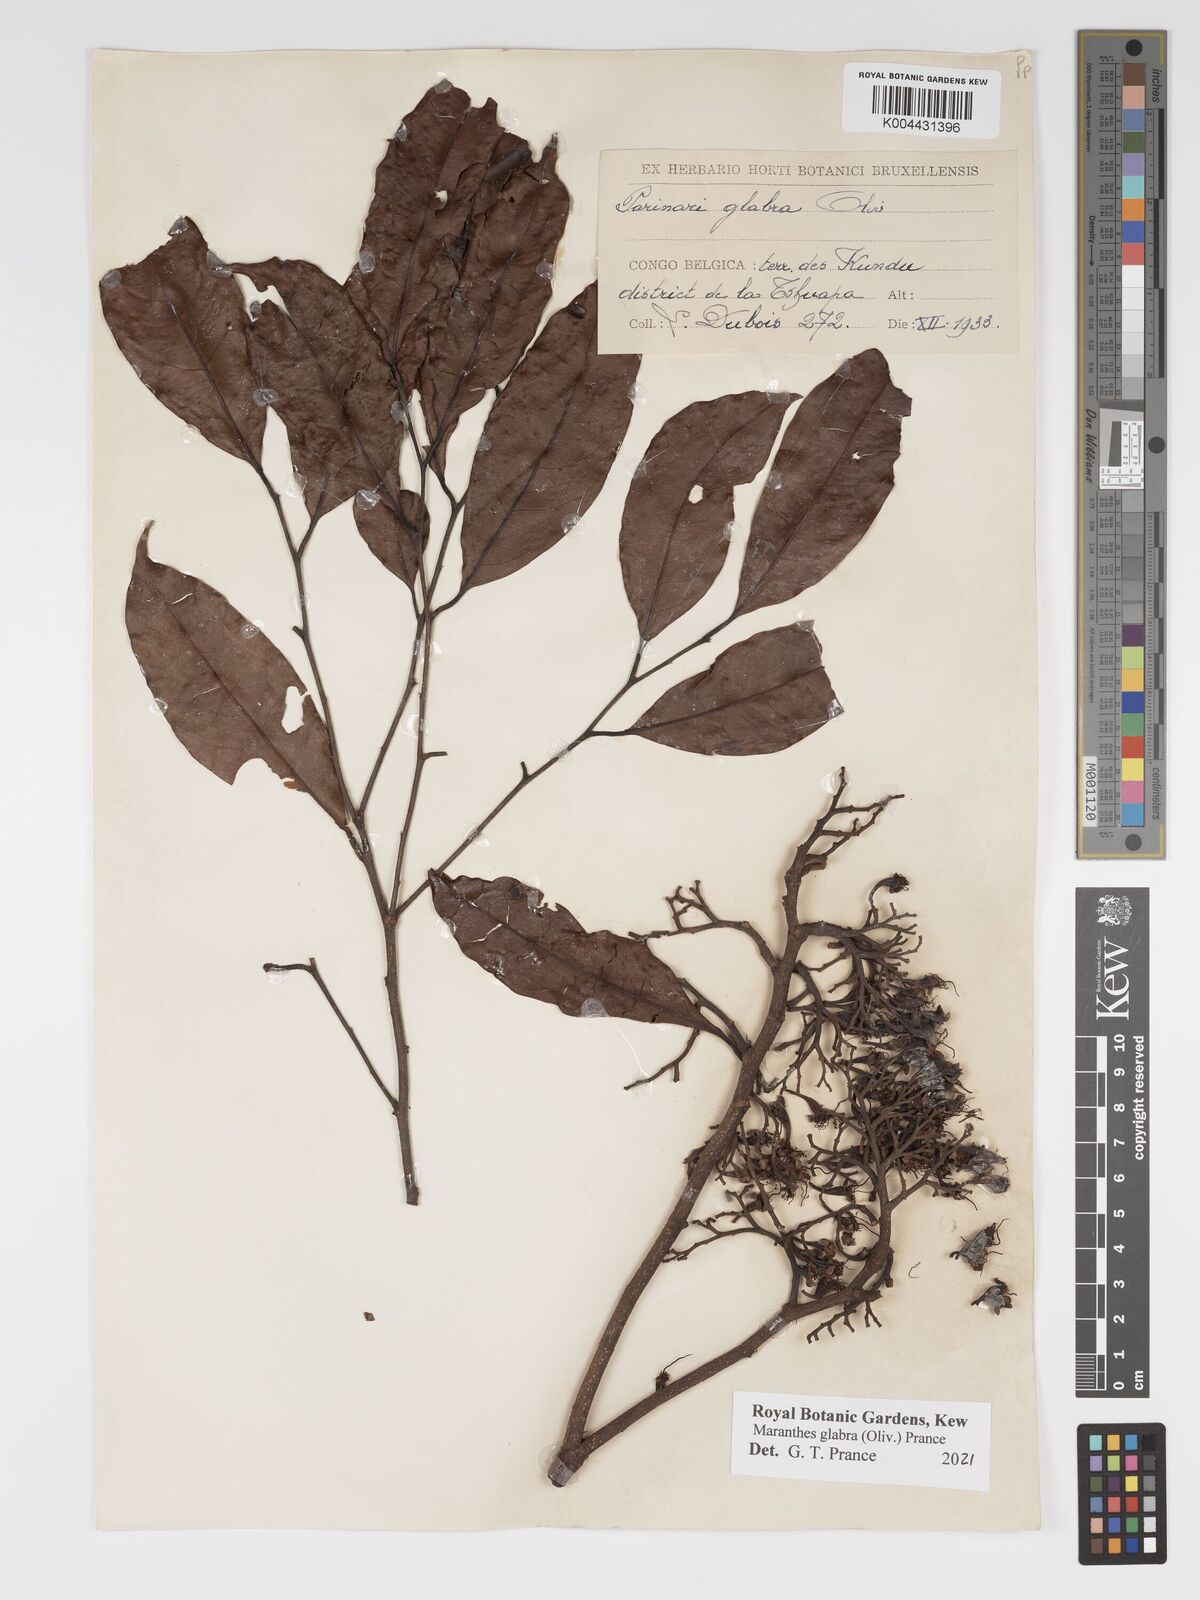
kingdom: Plantae
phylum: Tracheophyta
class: Magnoliopsida
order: Malpighiales
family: Chrysobalanaceae
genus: Maranthes
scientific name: Maranthes glabra
